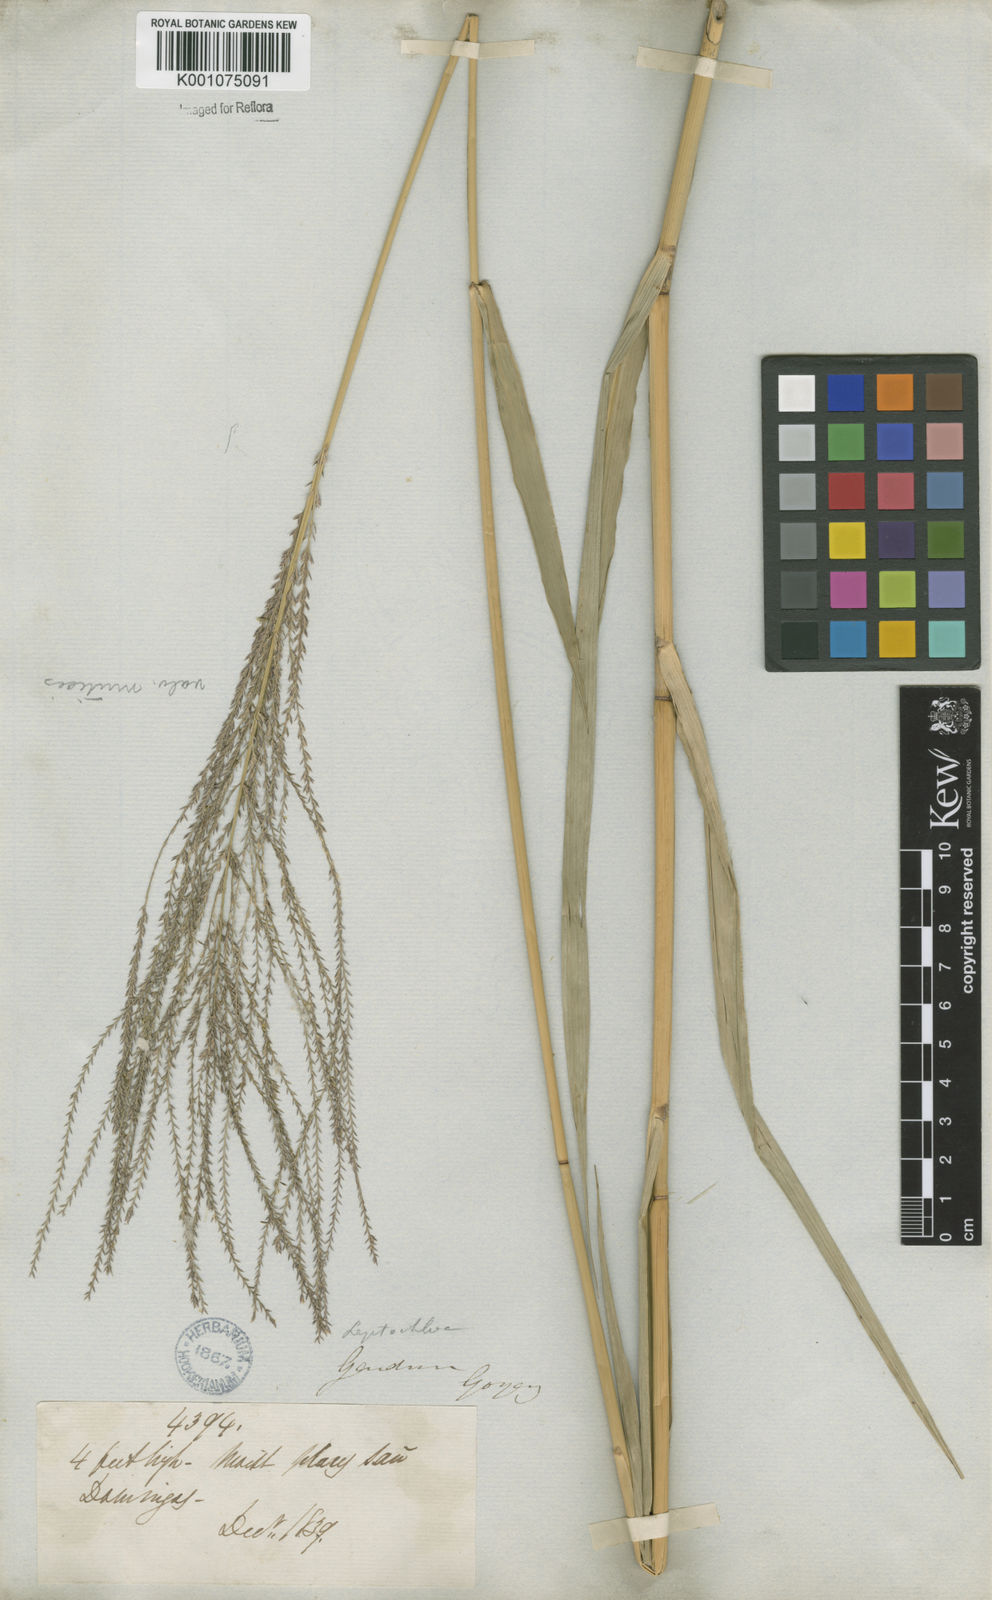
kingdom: Plantae
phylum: Tracheophyta
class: Liliopsida
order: Poales
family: Poaceae
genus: Leptochloa
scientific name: Leptochloa virgata
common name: Tropical sprangletop
